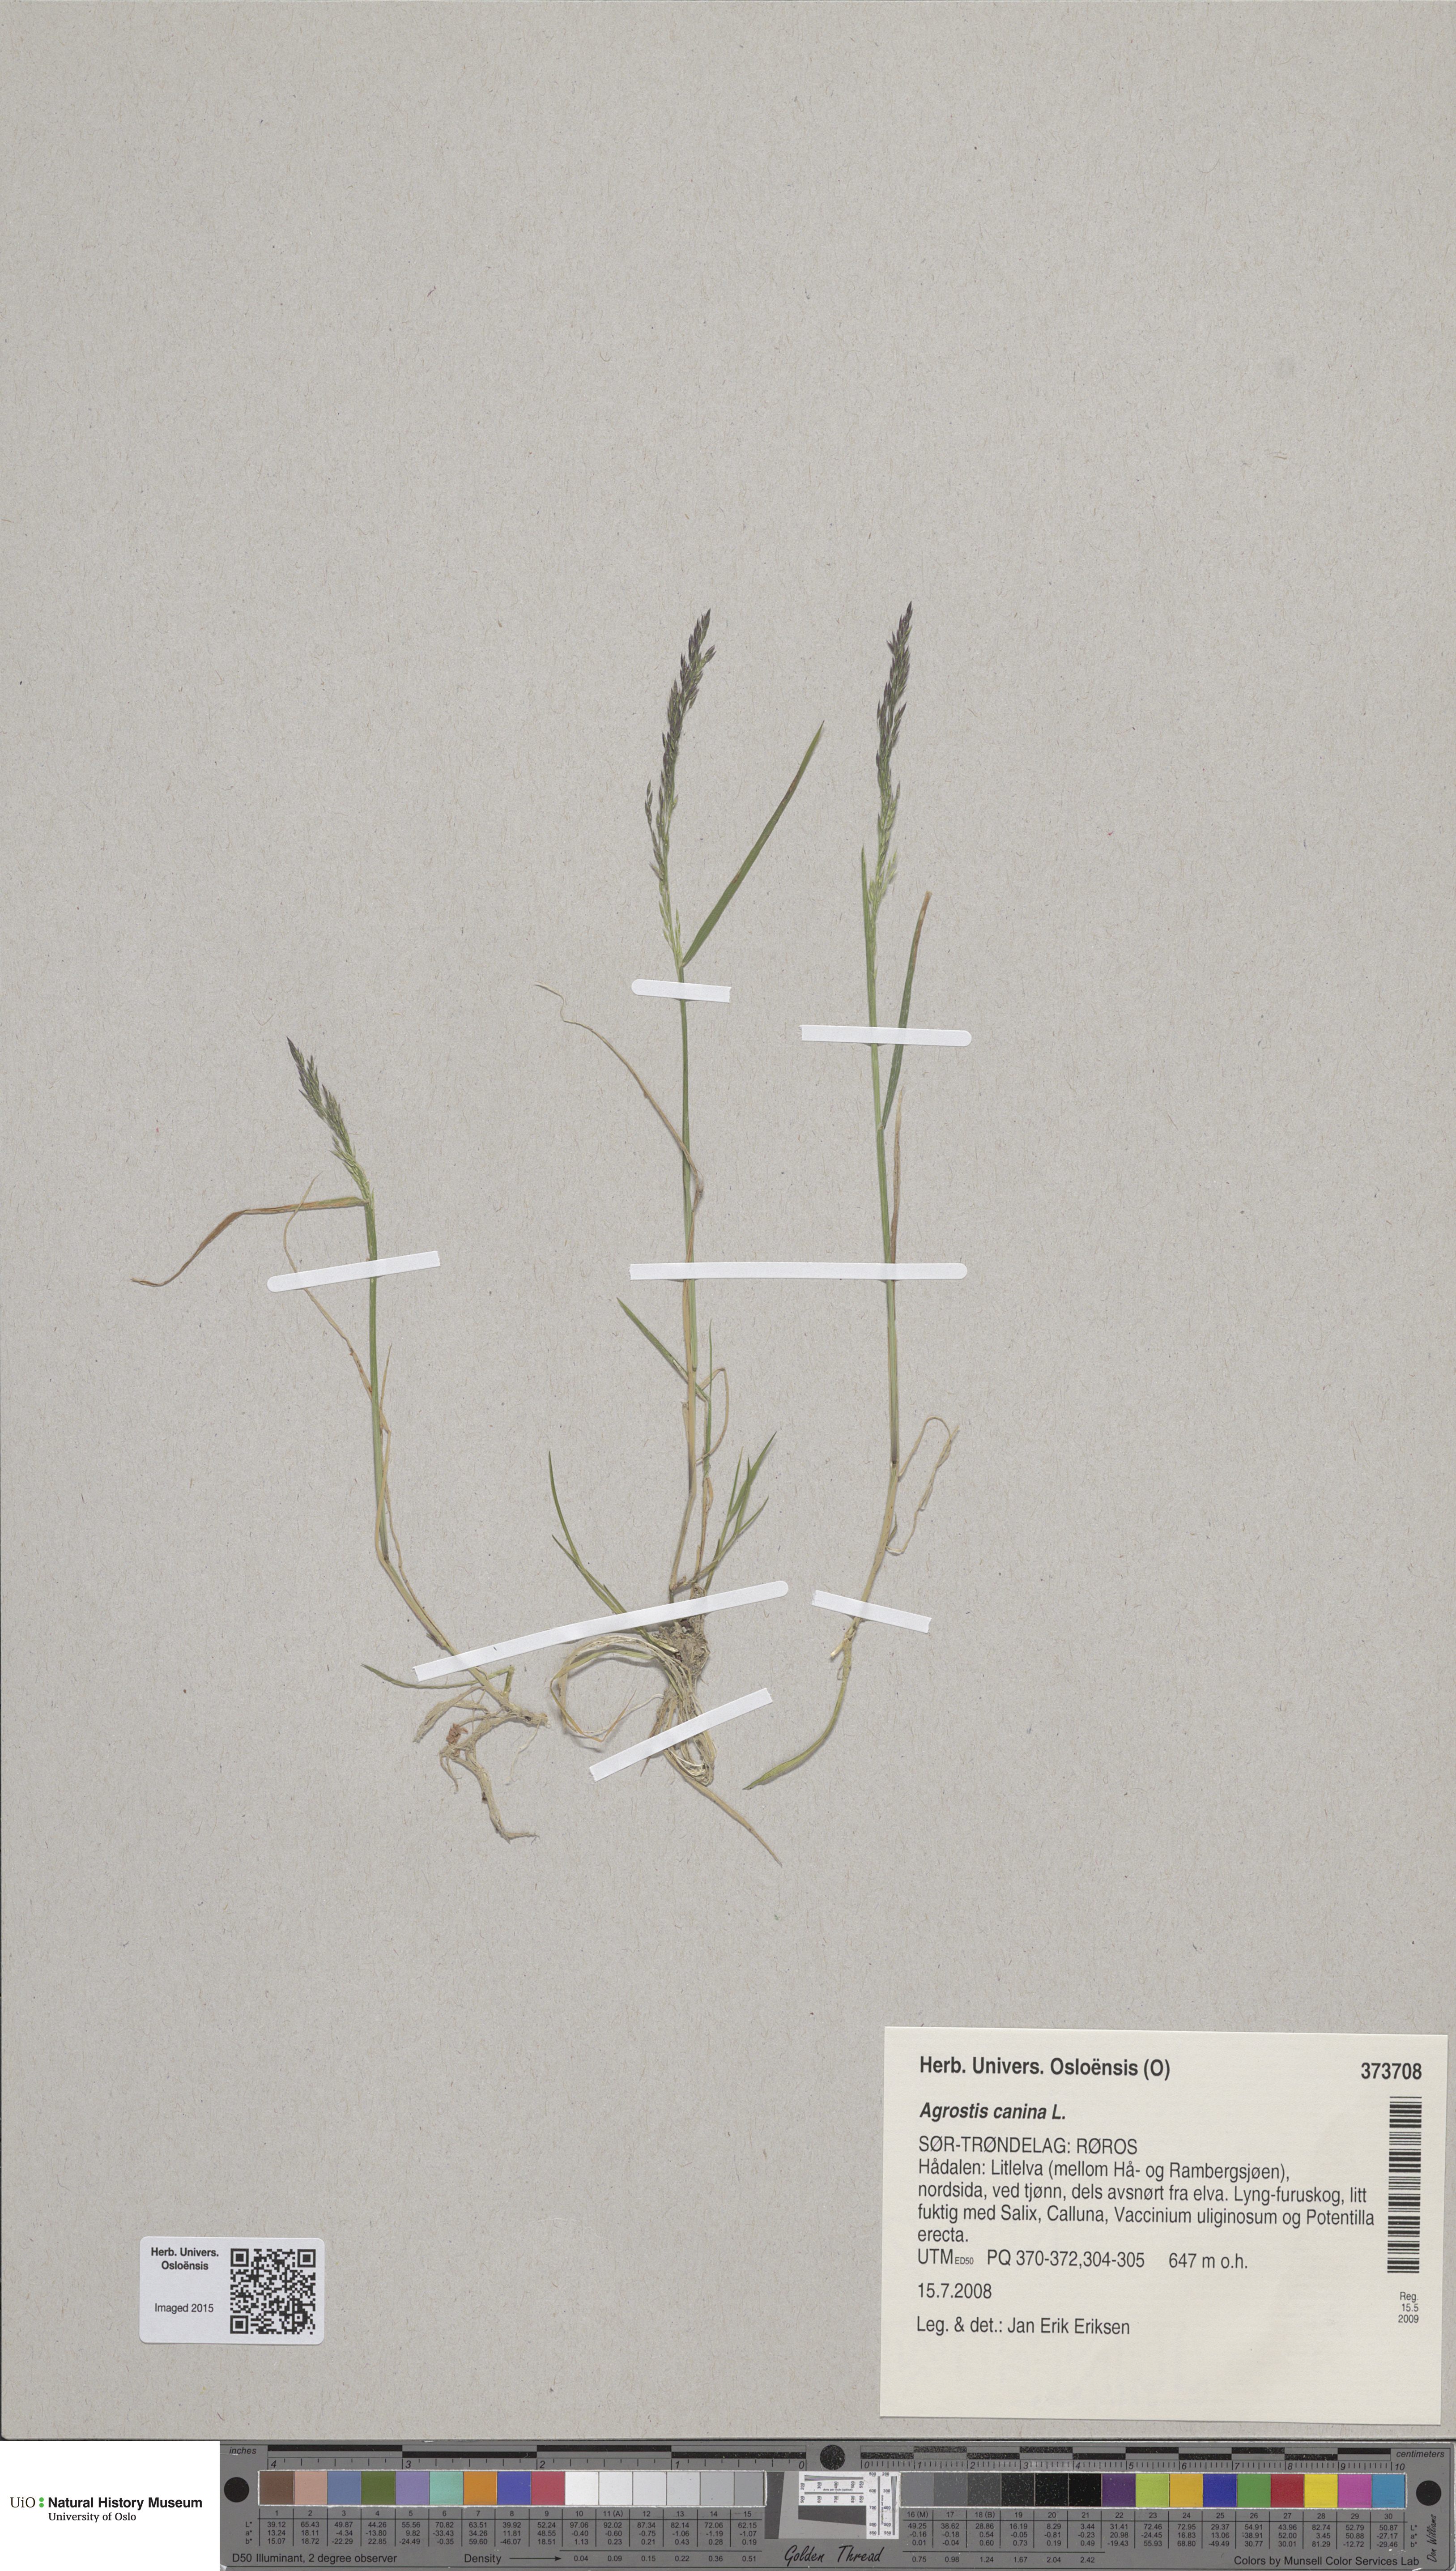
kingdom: Plantae
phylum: Tracheophyta
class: Liliopsida
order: Poales
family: Poaceae
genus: Agrostis
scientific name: Agrostis canina
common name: Velvet bent
